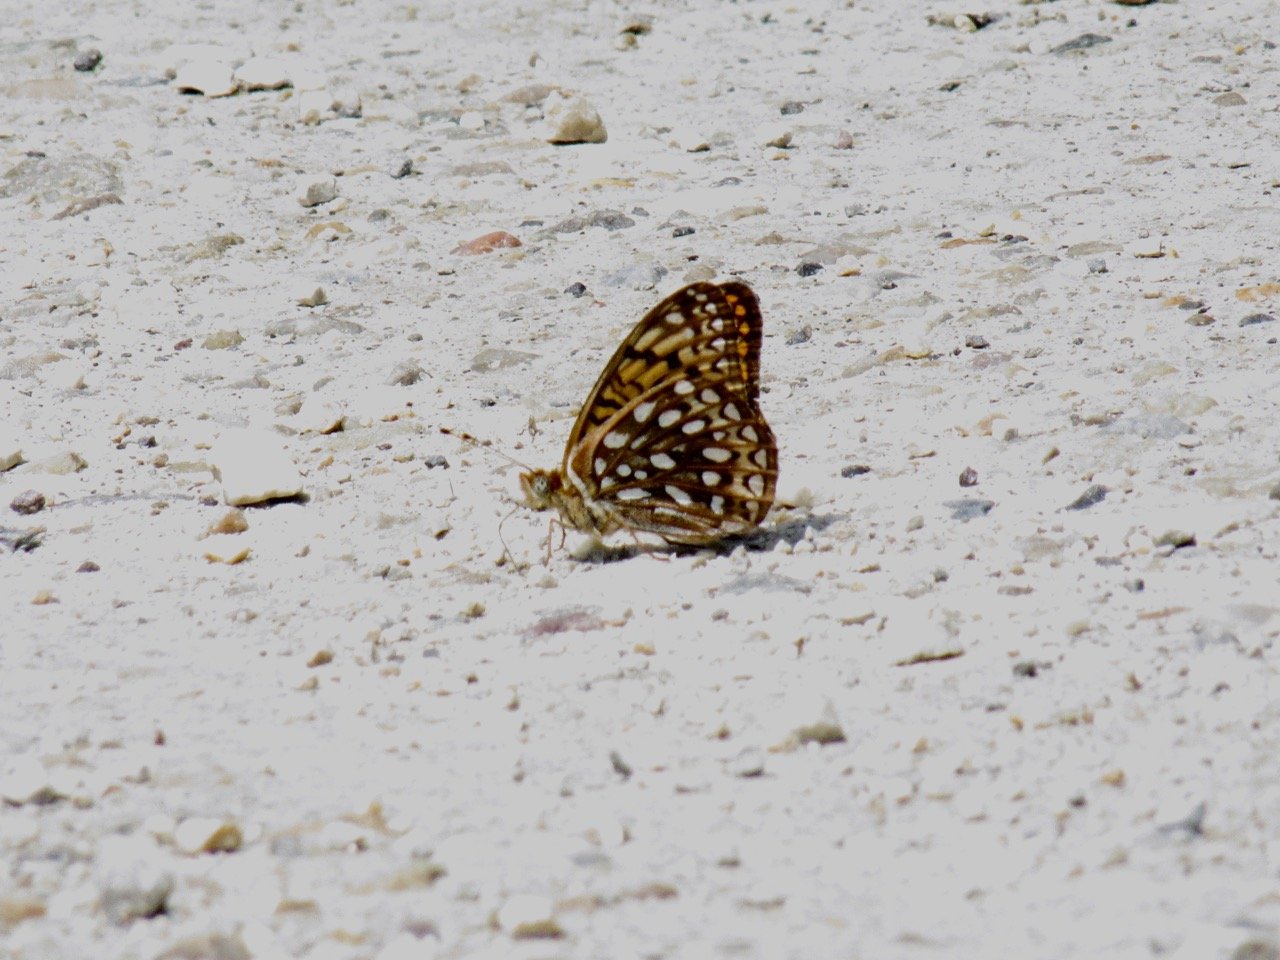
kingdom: Animalia
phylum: Arthropoda
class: Insecta
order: Lepidoptera
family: Nymphalidae
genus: Speyeria
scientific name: Speyeria atlantis
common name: Atlantis Fritillary
